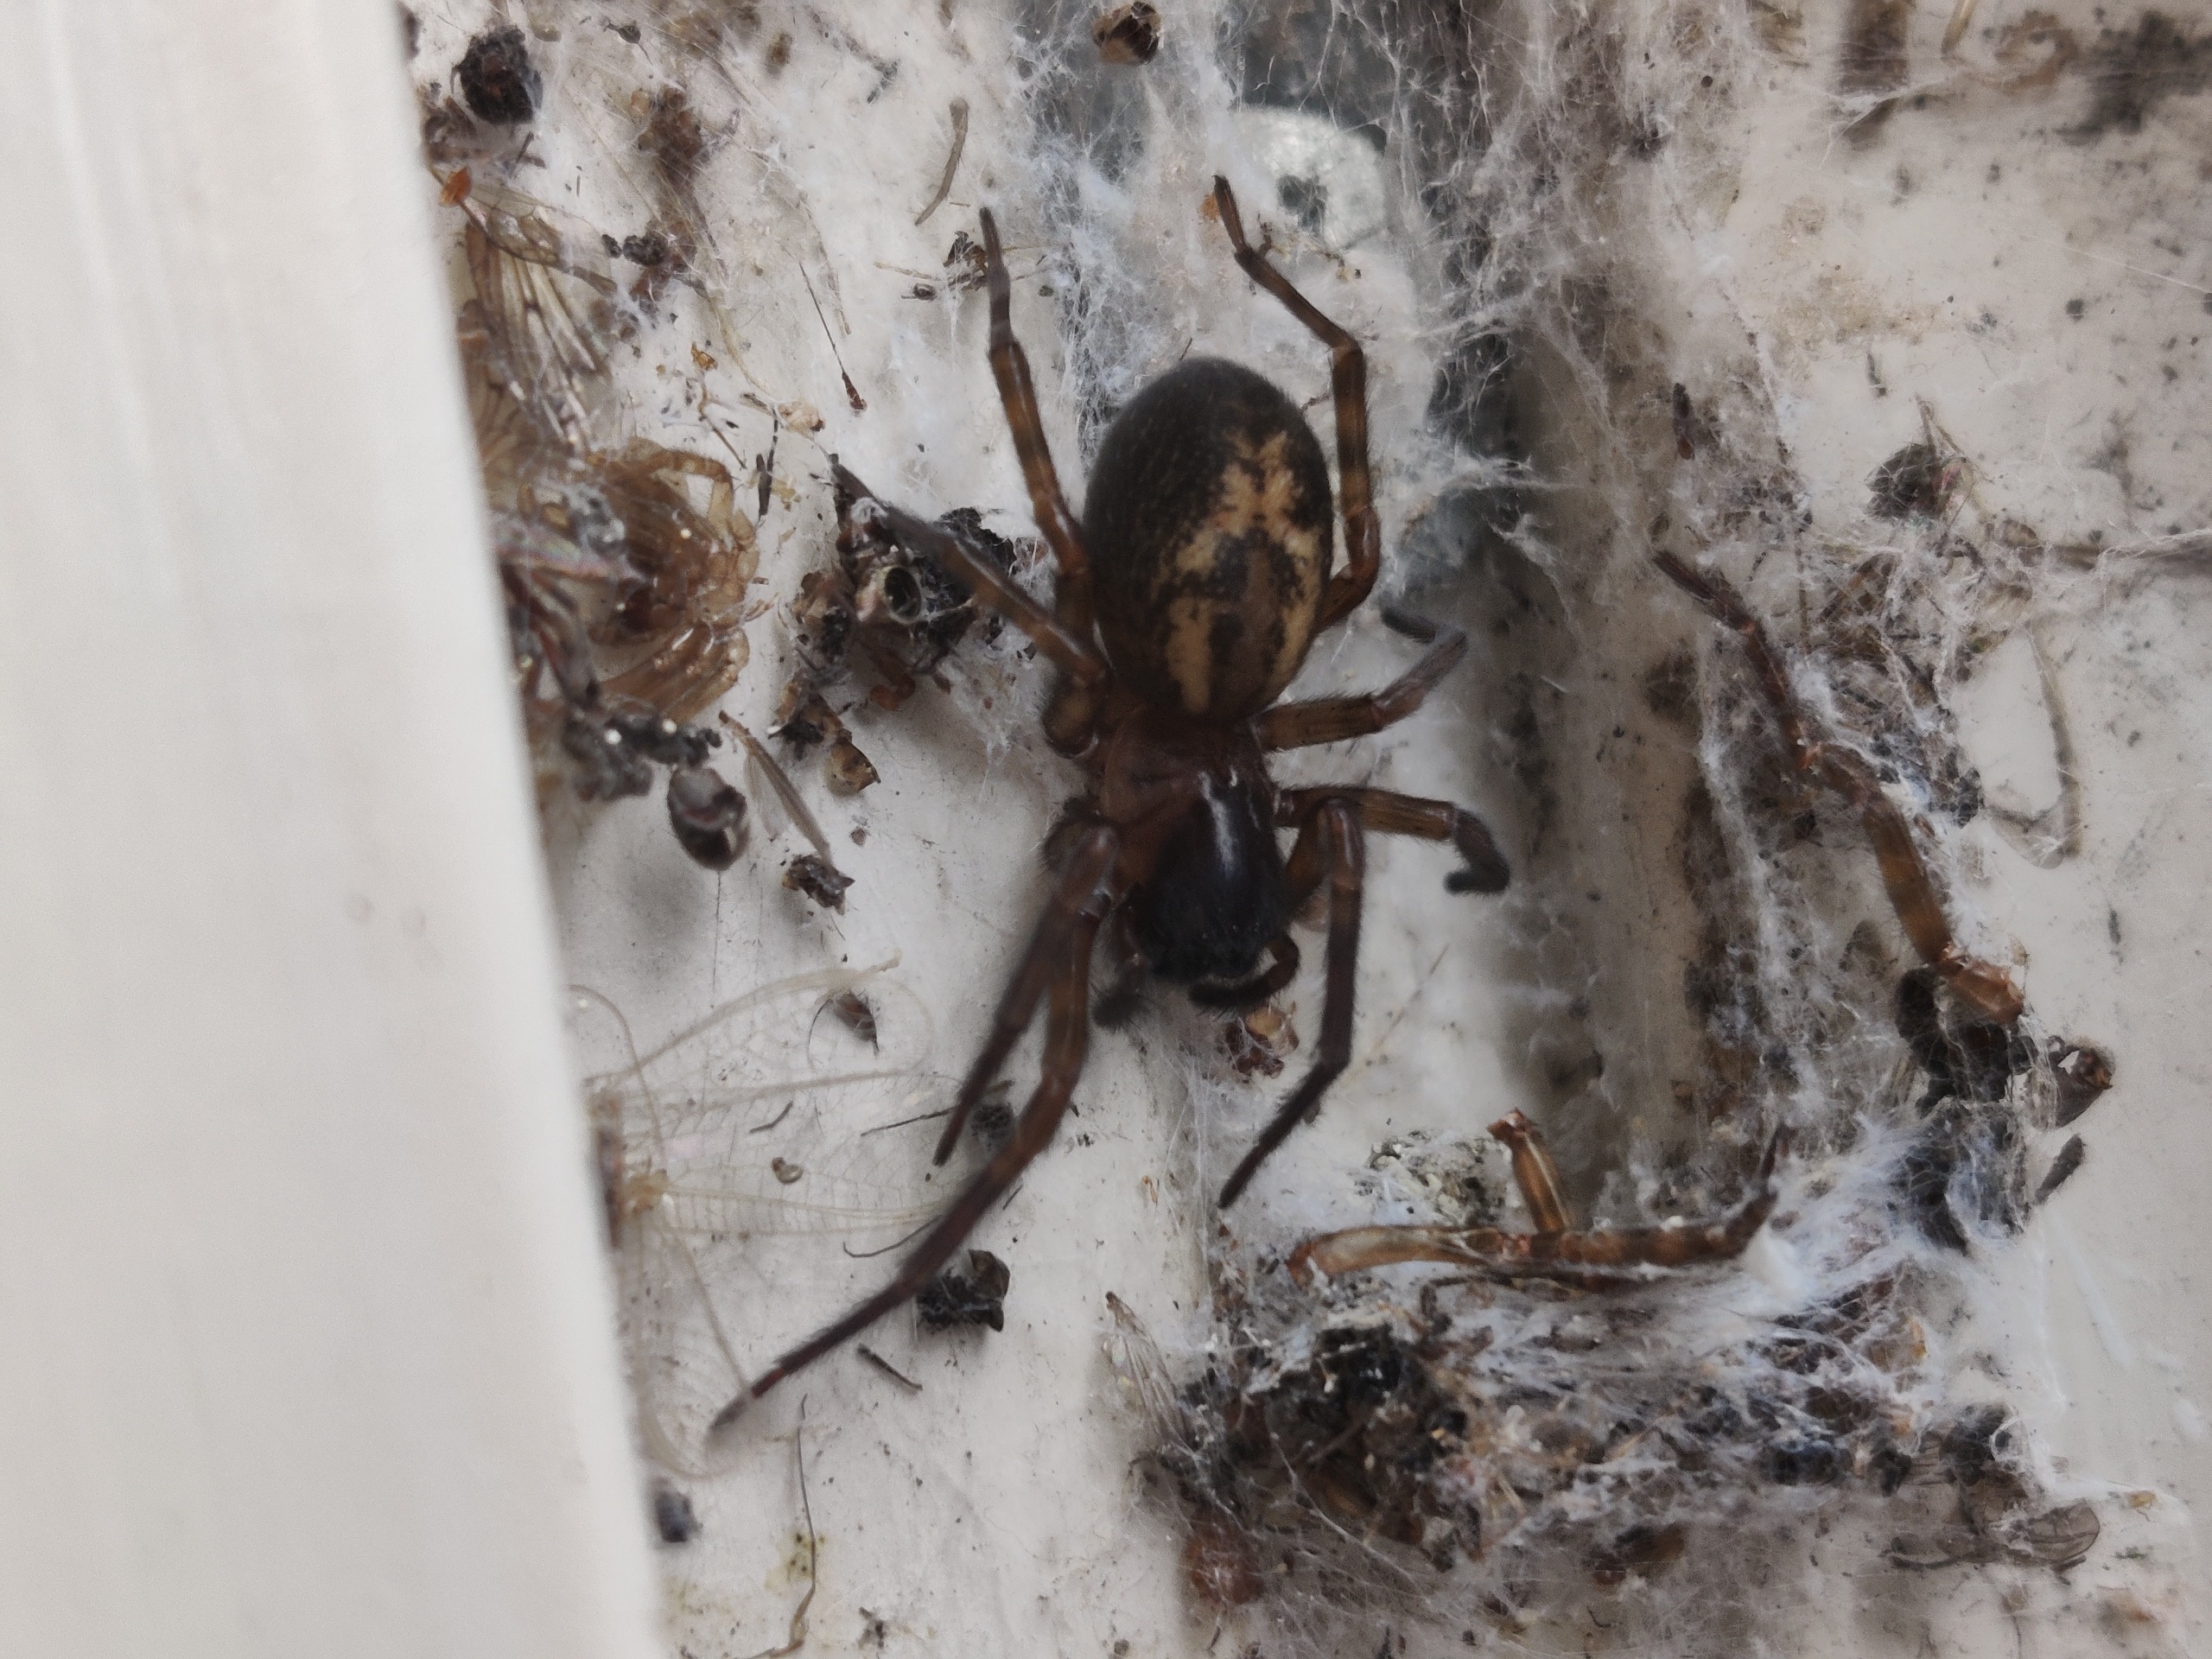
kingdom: Animalia
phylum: Arthropoda
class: Arachnida
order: Araneae
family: Amaurobiidae
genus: Amaurobius
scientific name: Amaurobius similis
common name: Huskartespinder
